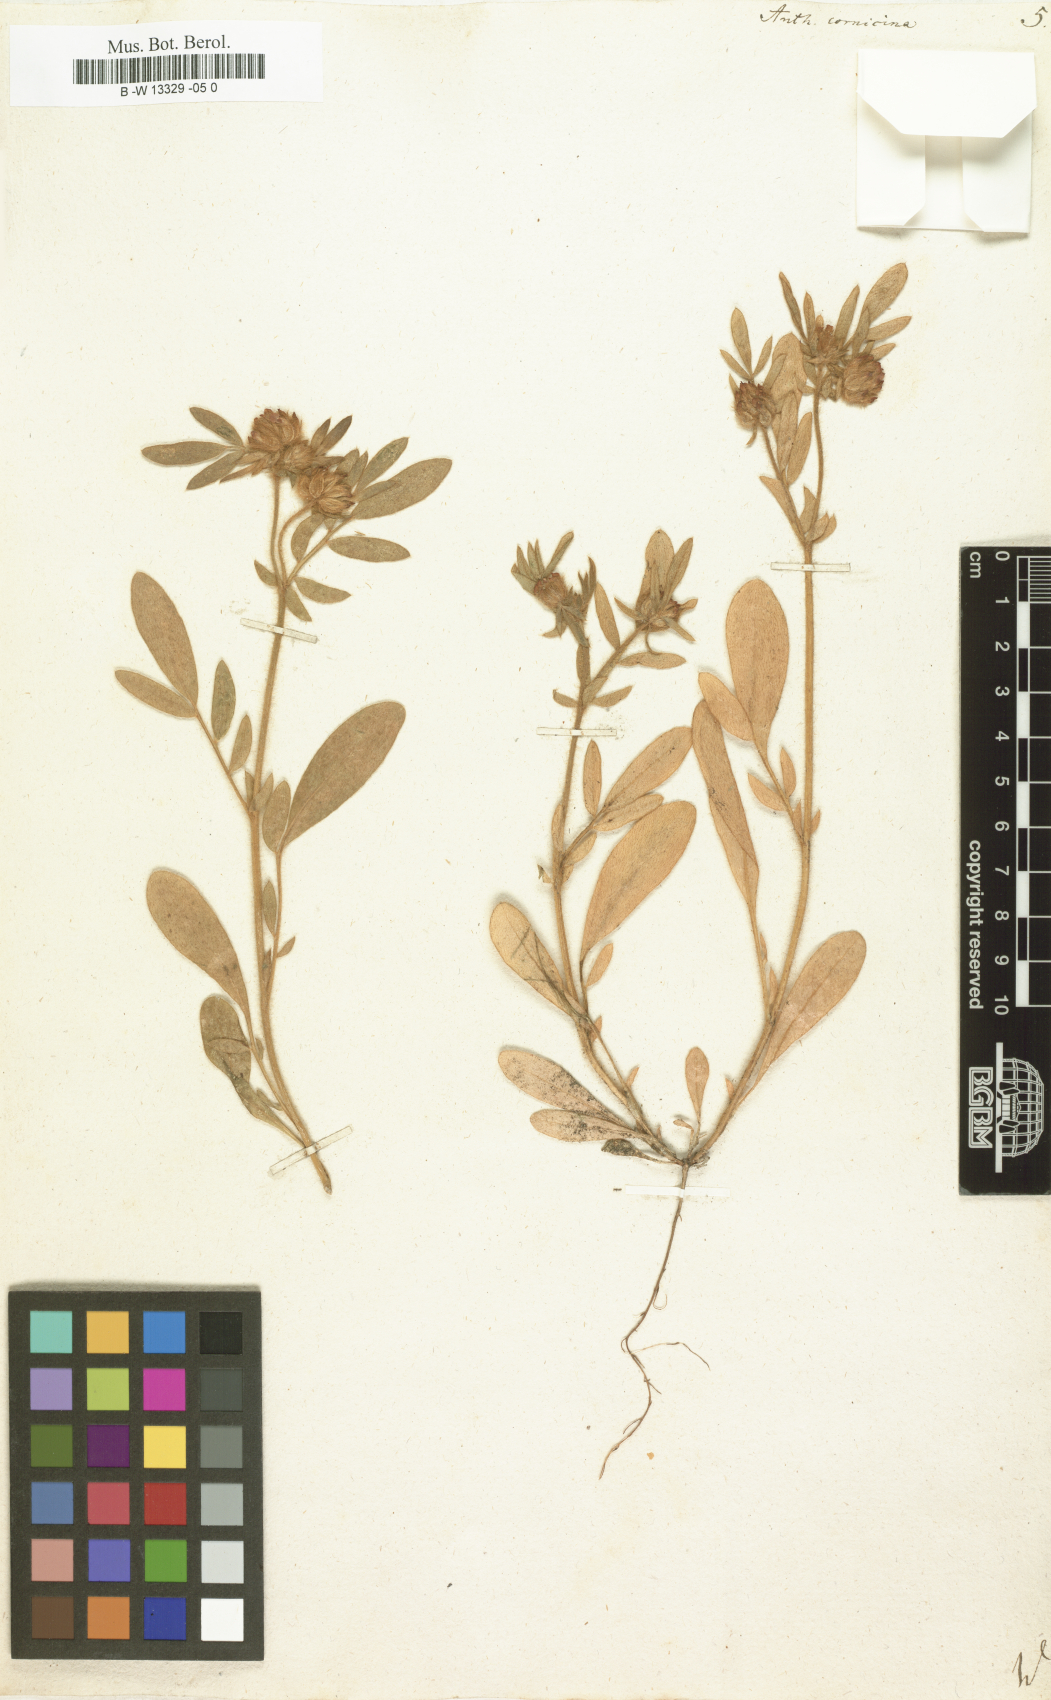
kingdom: Plantae
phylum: Tracheophyta
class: Magnoliopsida
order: Fabales
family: Fabaceae
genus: Anthyllis
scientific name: Anthyllis cornicina
